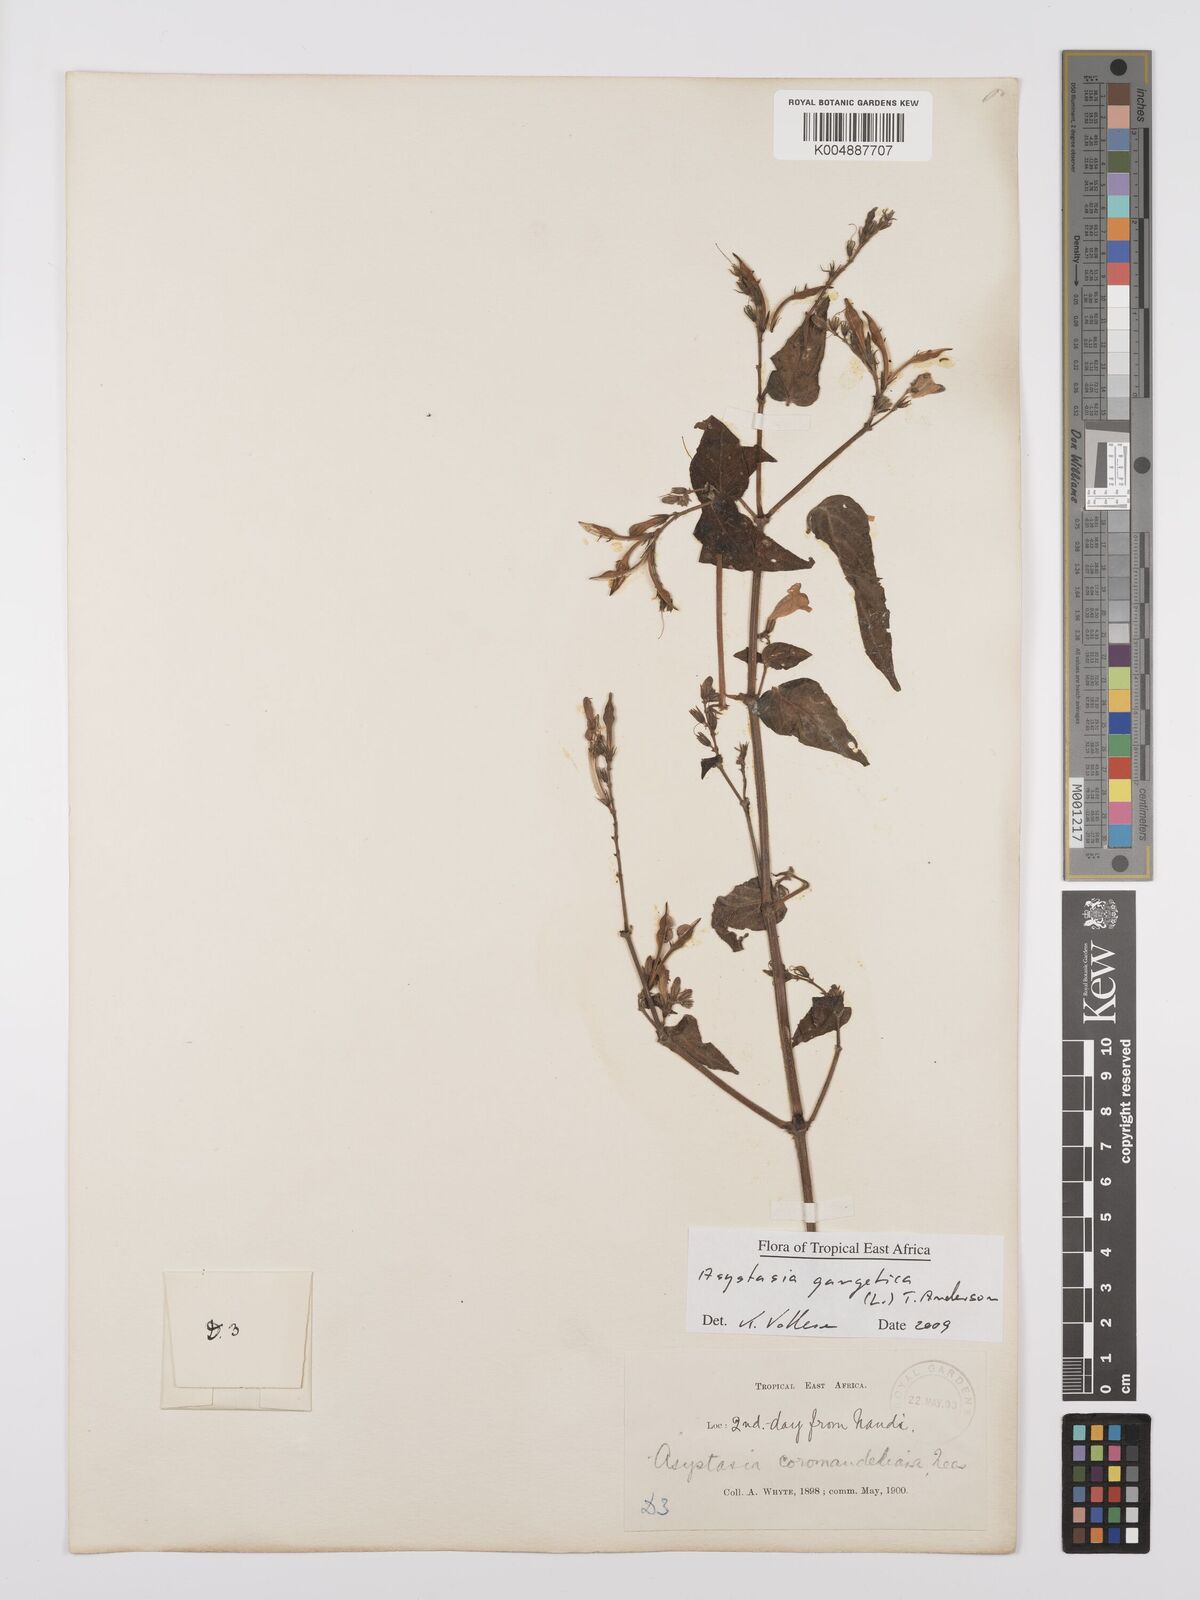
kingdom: Plantae
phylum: Tracheophyta
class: Magnoliopsida
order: Lamiales
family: Acanthaceae
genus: Asystasia
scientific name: Asystasia gangetica
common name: Chinese violet
